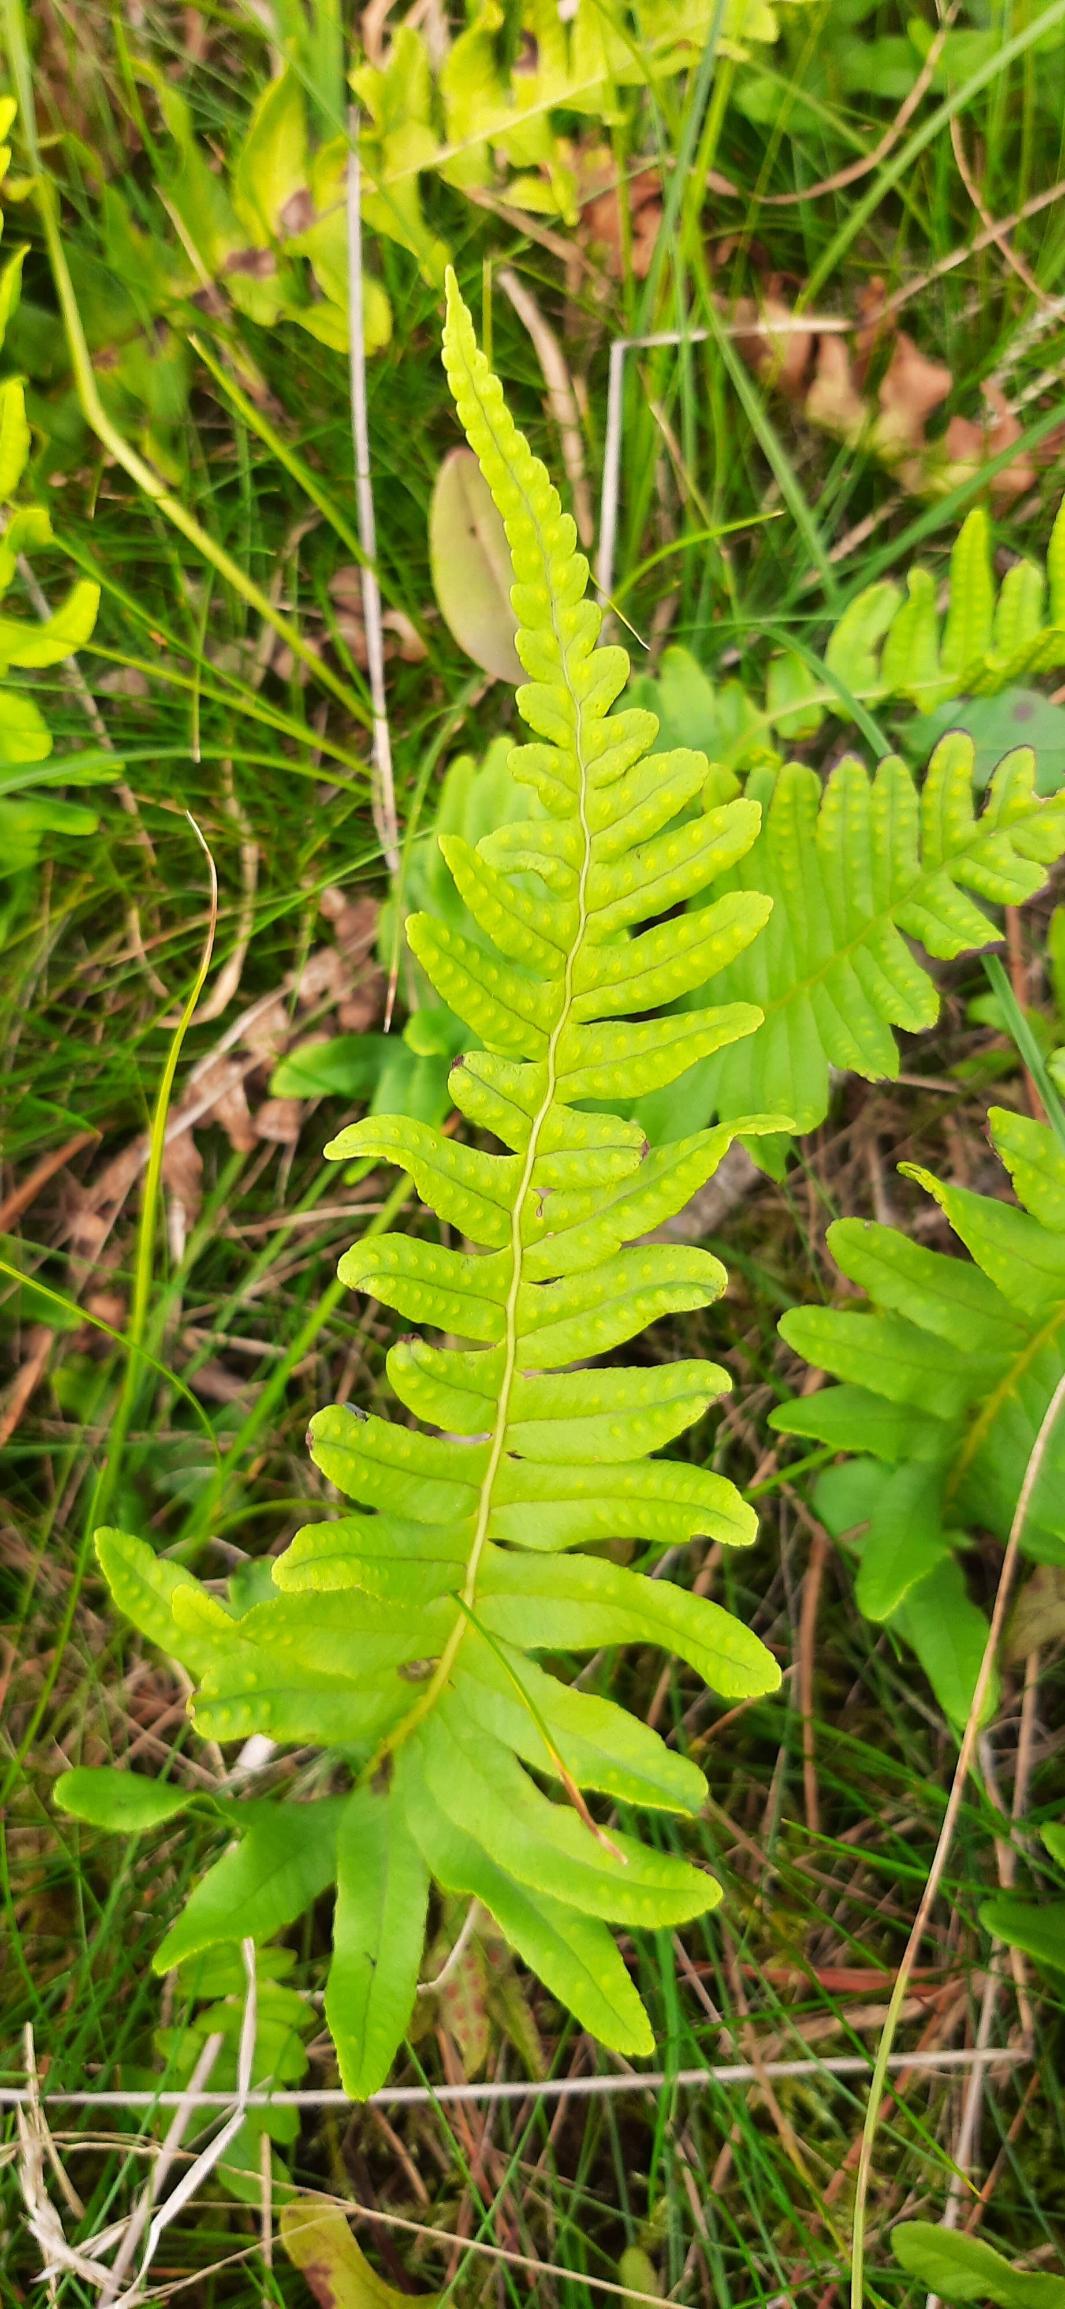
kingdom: Plantae
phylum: Tracheophyta
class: Polypodiopsida
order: Polypodiales
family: Polypodiaceae
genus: Polypodium
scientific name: Polypodium vulgare
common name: Almindelig engelsød
